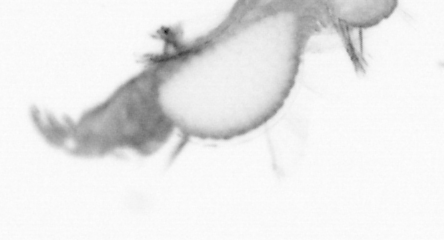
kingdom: Animalia
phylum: Annelida
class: Polychaeta
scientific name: Polychaeta
